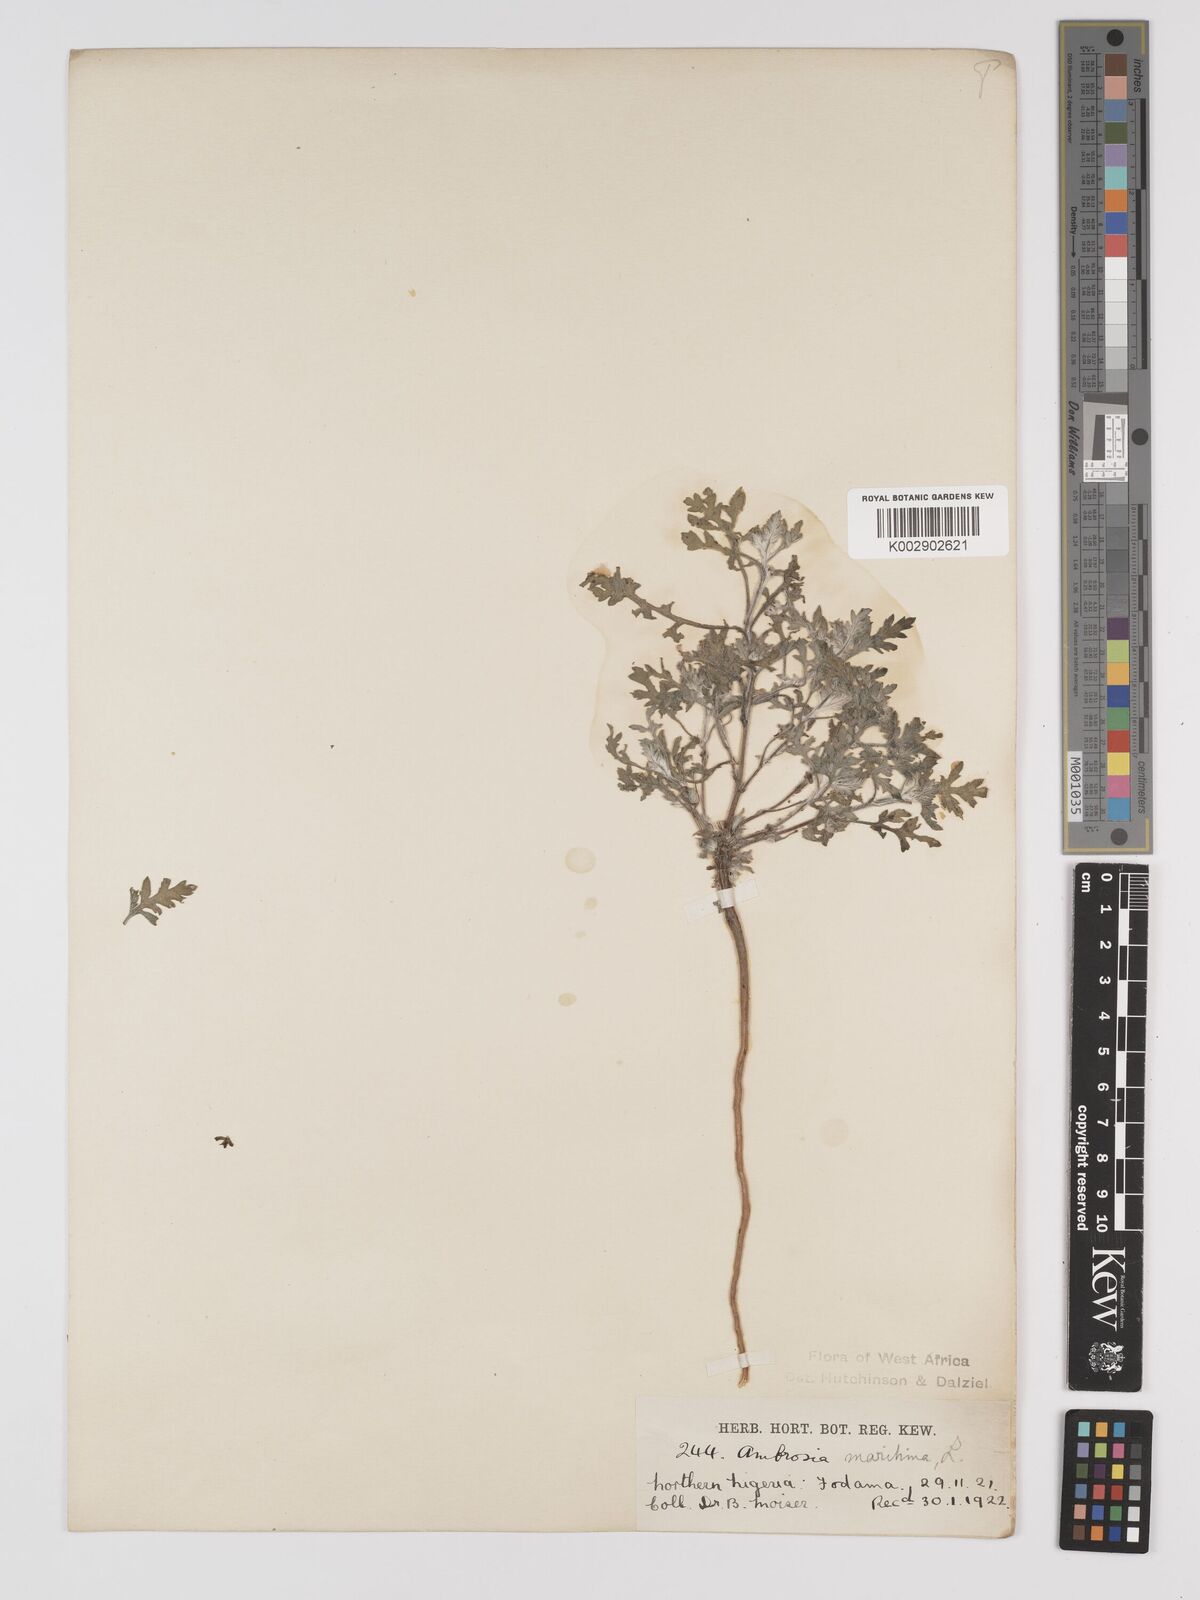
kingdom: Plantae
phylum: Tracheophyta
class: Magnoliopsida
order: Asterales
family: Asteraceae
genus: Ambrosia
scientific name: Ambrosia maritima
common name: Sea ambrosia
